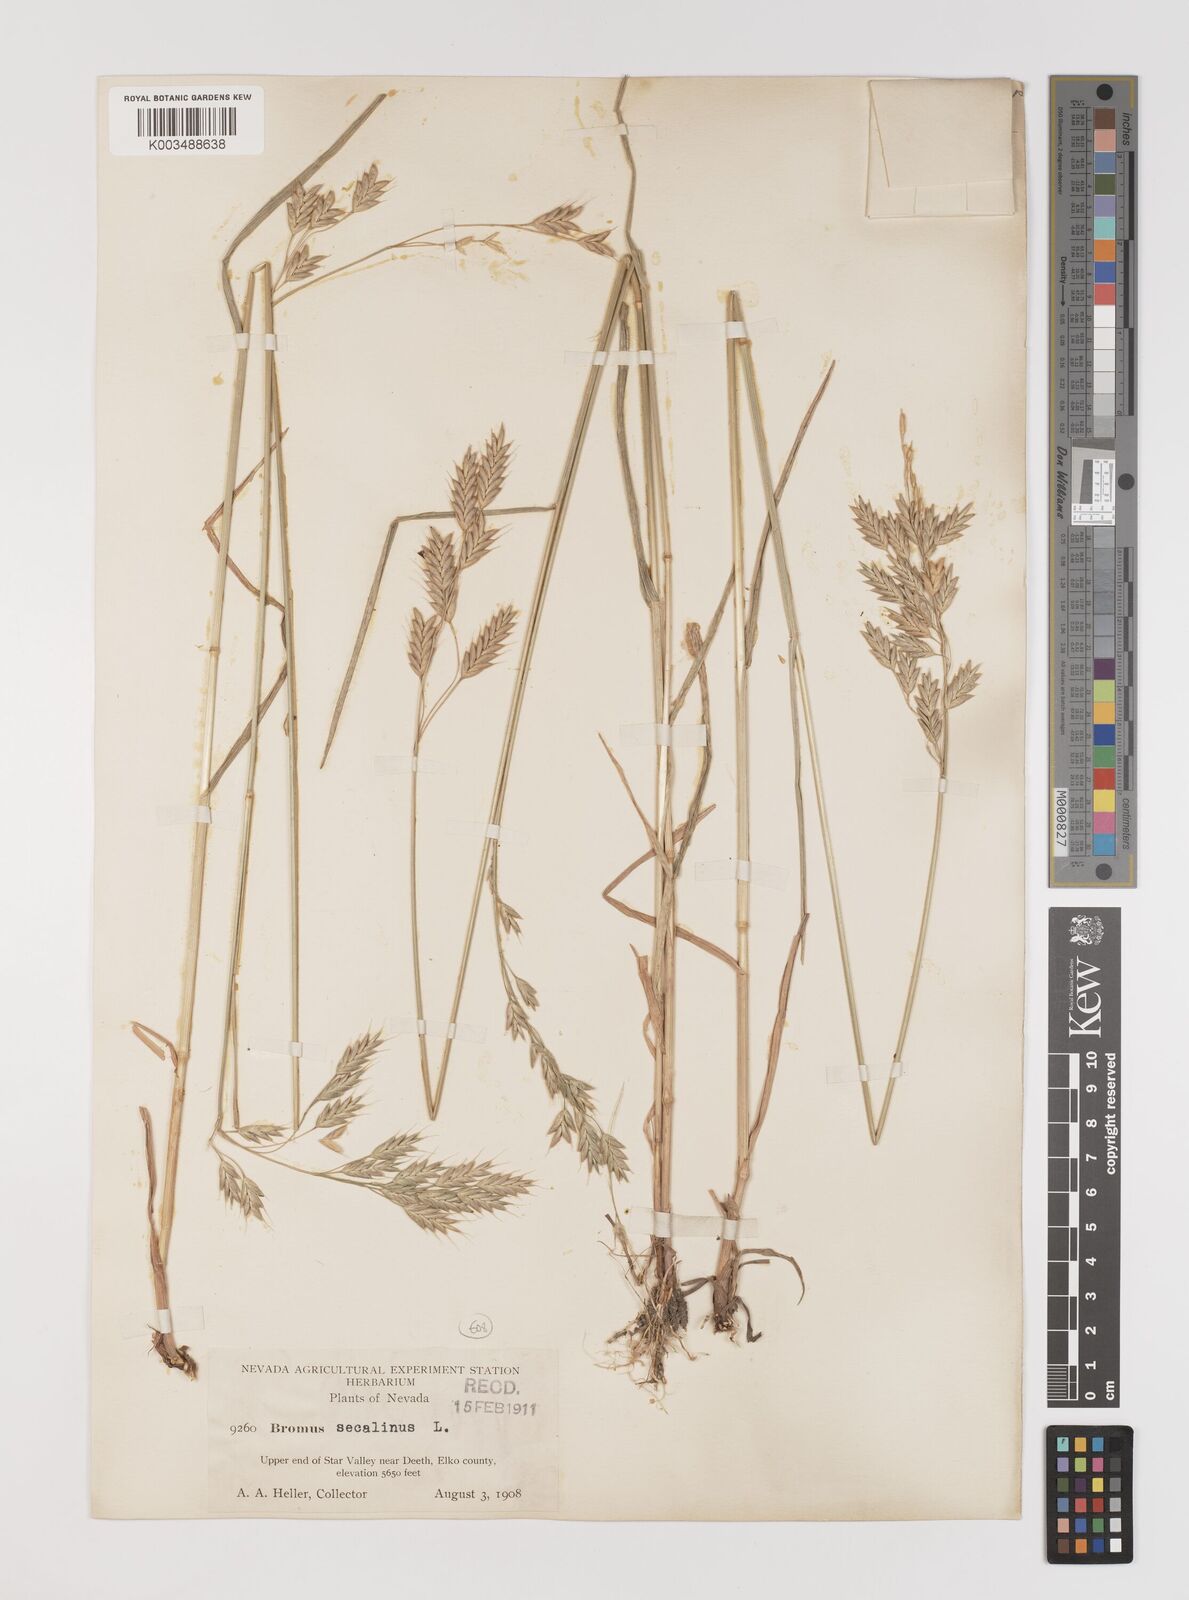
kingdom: Plantae
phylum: Tracheophyta
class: Liliopsida
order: Poales
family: Poaceae
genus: Bromus
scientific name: Bromus secalinus
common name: Rye brome
